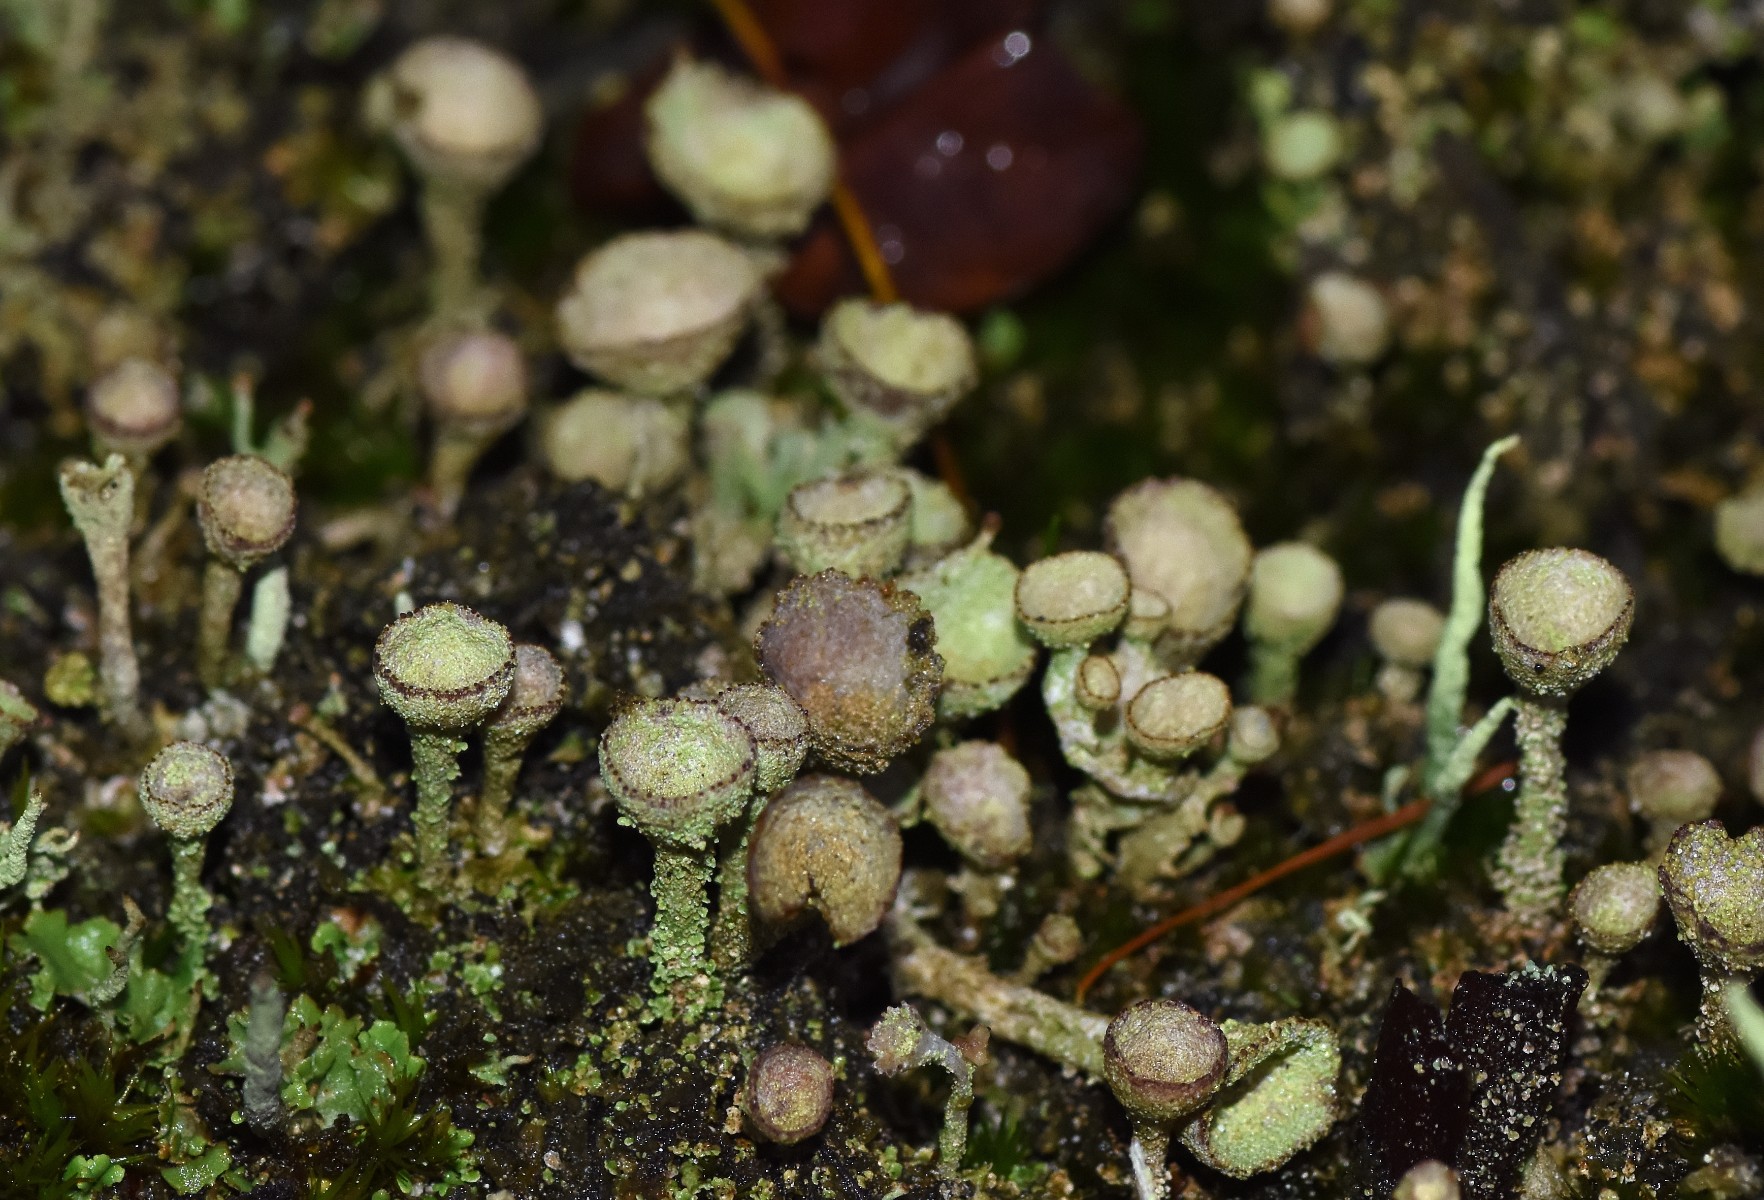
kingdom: Fungi
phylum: Ascomycota
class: Lecanoromycetes
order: Lecanorales
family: Cladoniaceae
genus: Cladonia
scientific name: Cladonia
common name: brungrøn bægerlav
